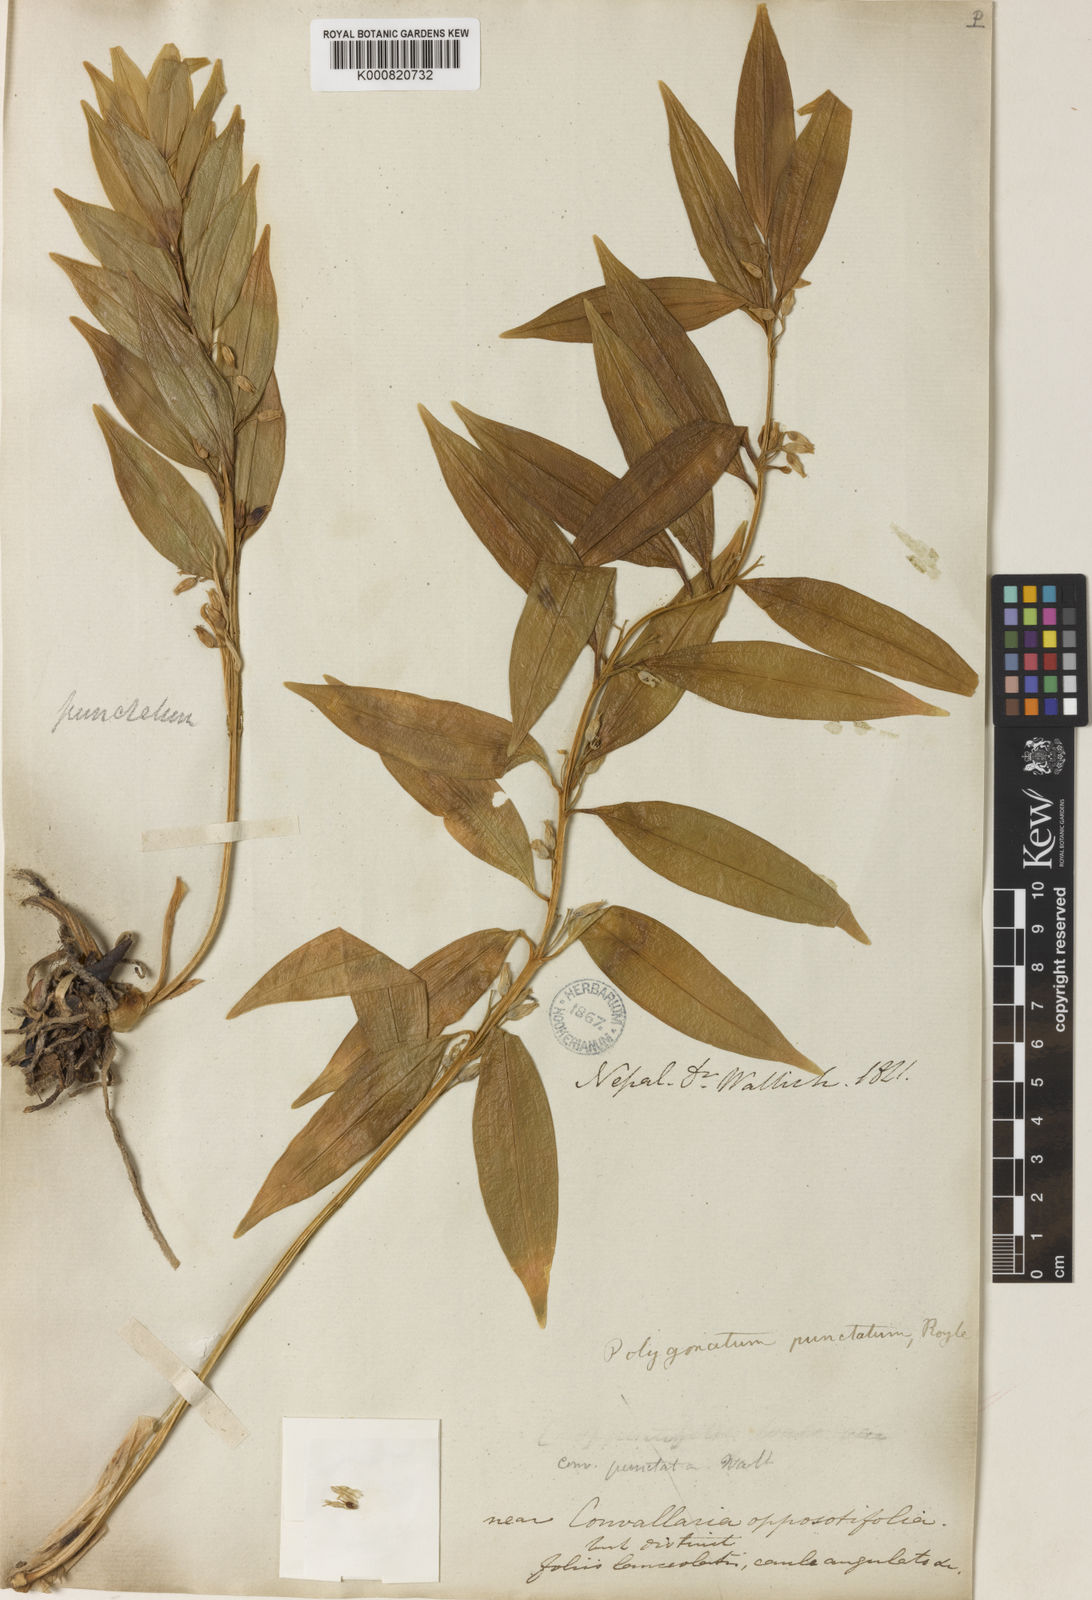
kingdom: Plantae
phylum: Tracheophyta
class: Liliopsida
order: Asparagales
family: Asparagaceae
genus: Polygonatum
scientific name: Polygonatum punctatum
